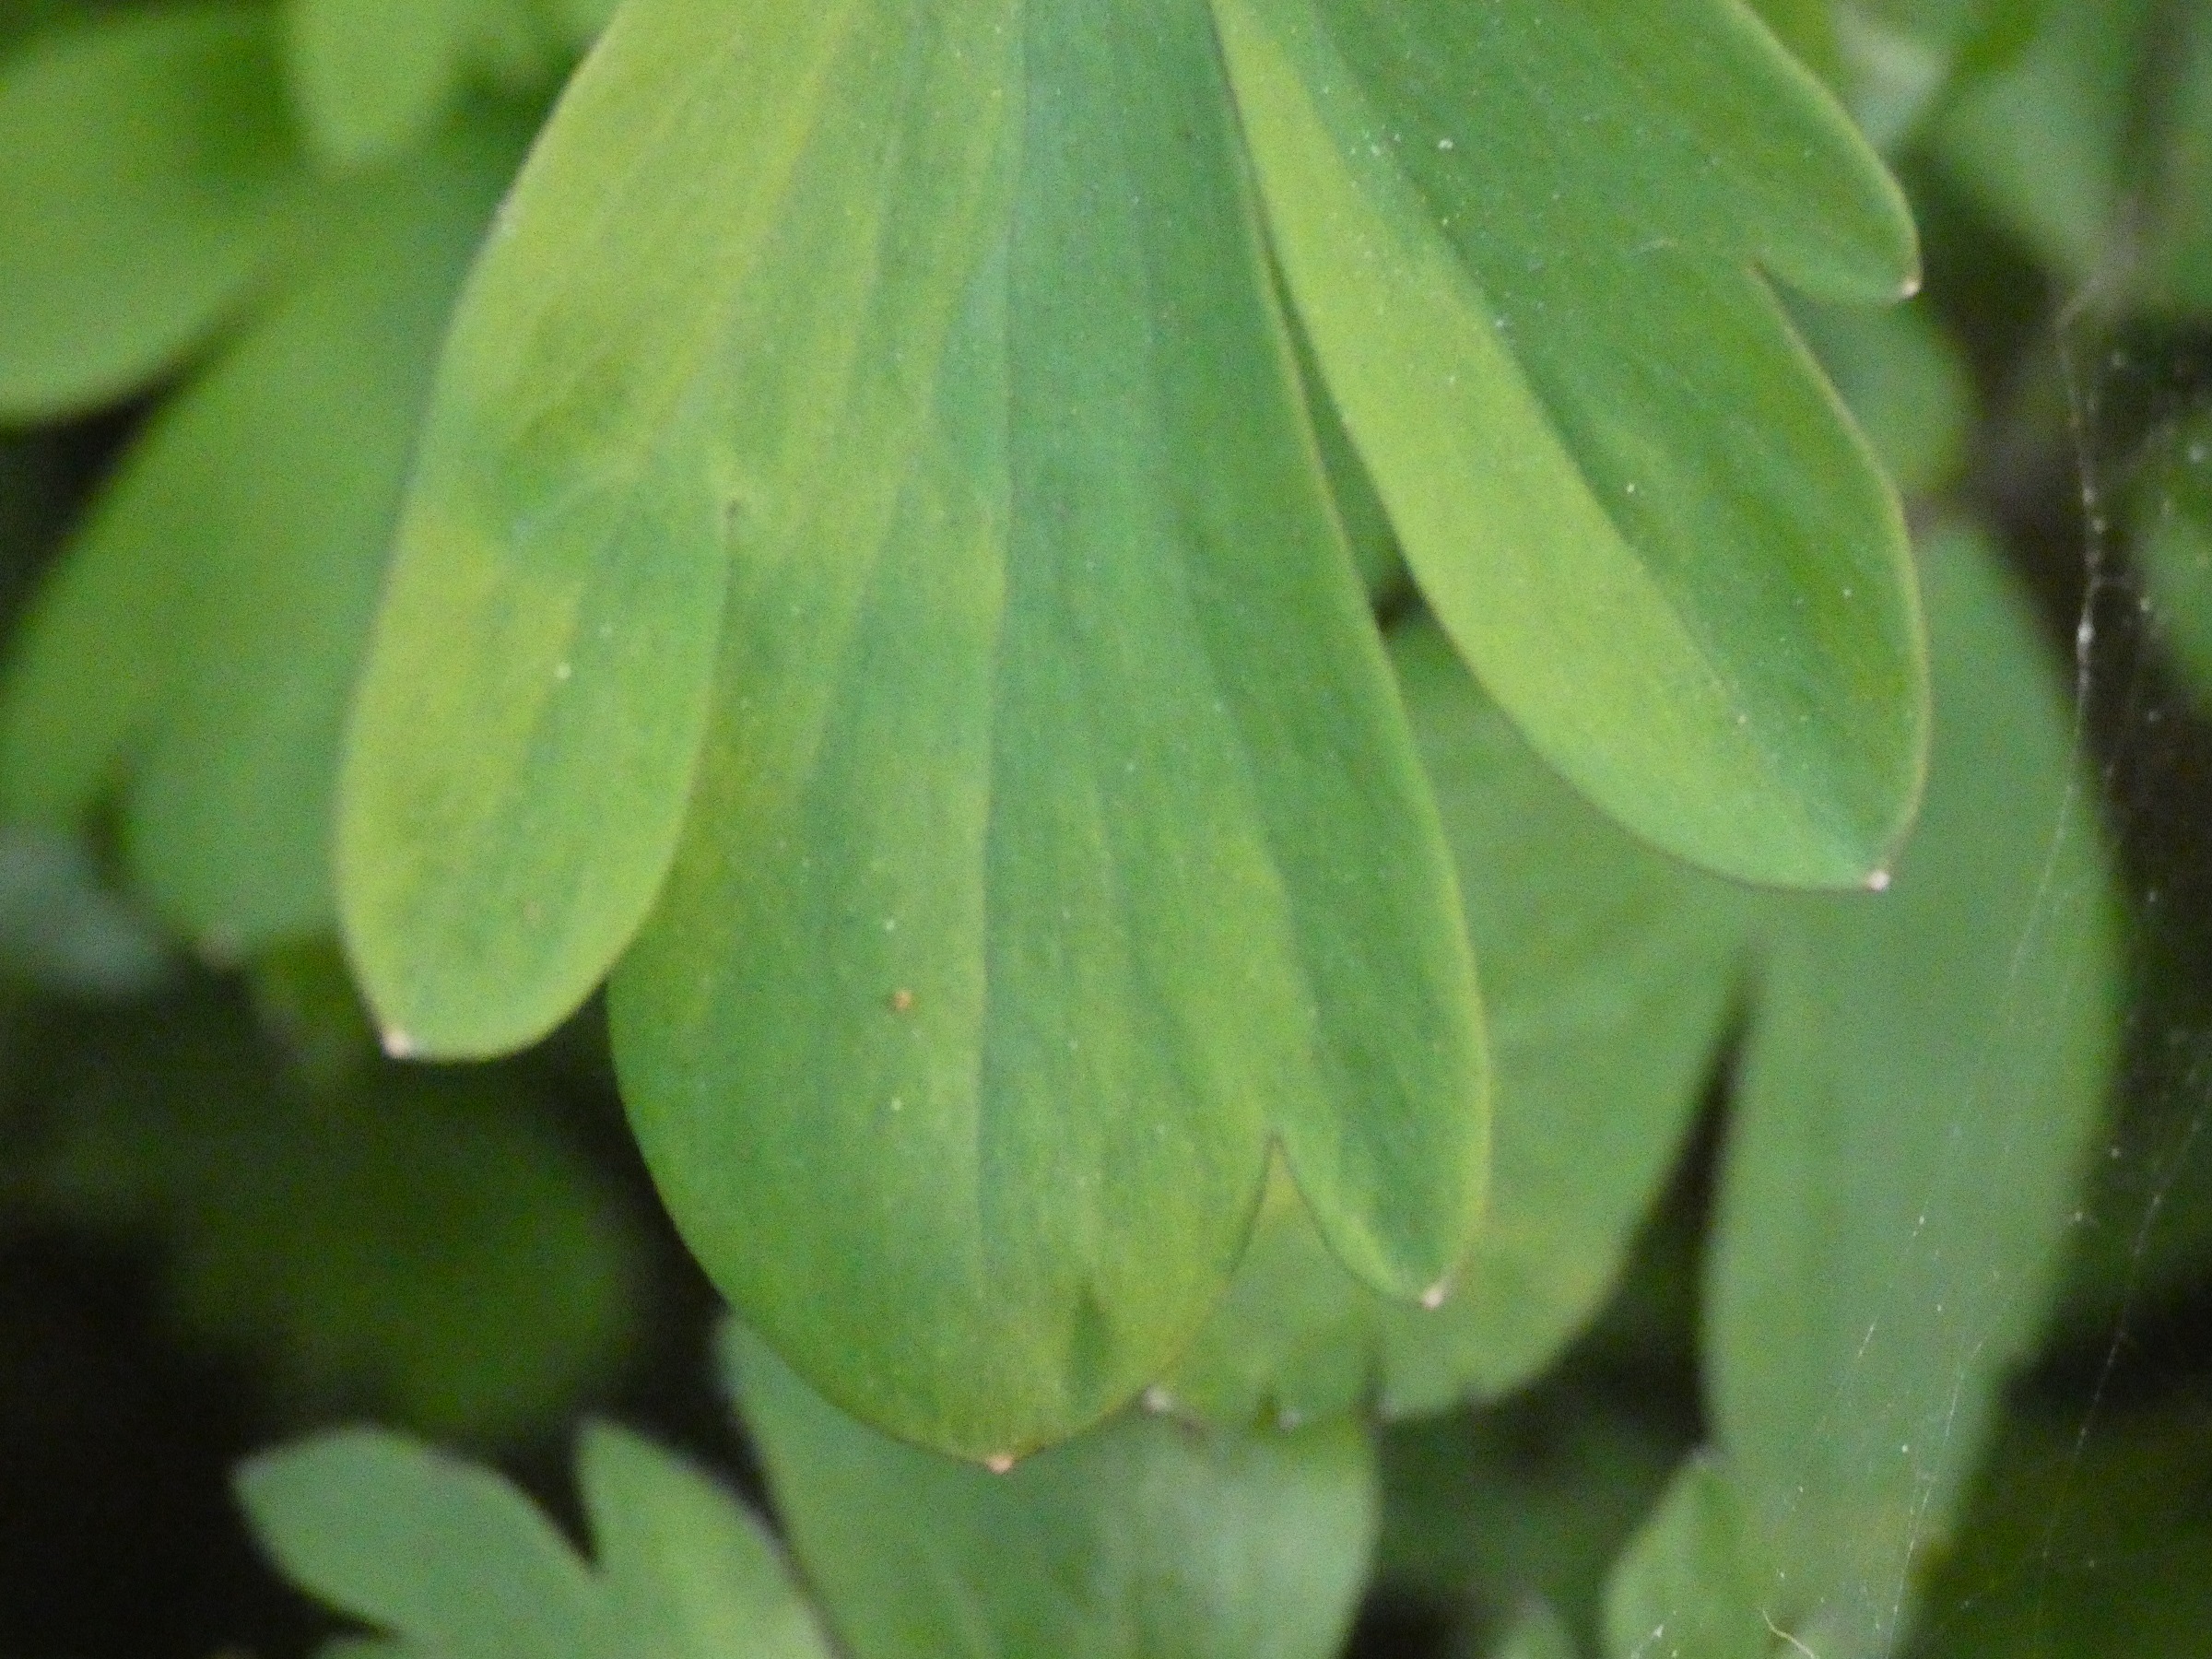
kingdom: Plantae
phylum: Tracheophyta
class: Magnoliopsida
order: Ranunculales
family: Papaveraceae
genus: Corydalis
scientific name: Corydalis cava
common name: Hulrodet lærkespore
